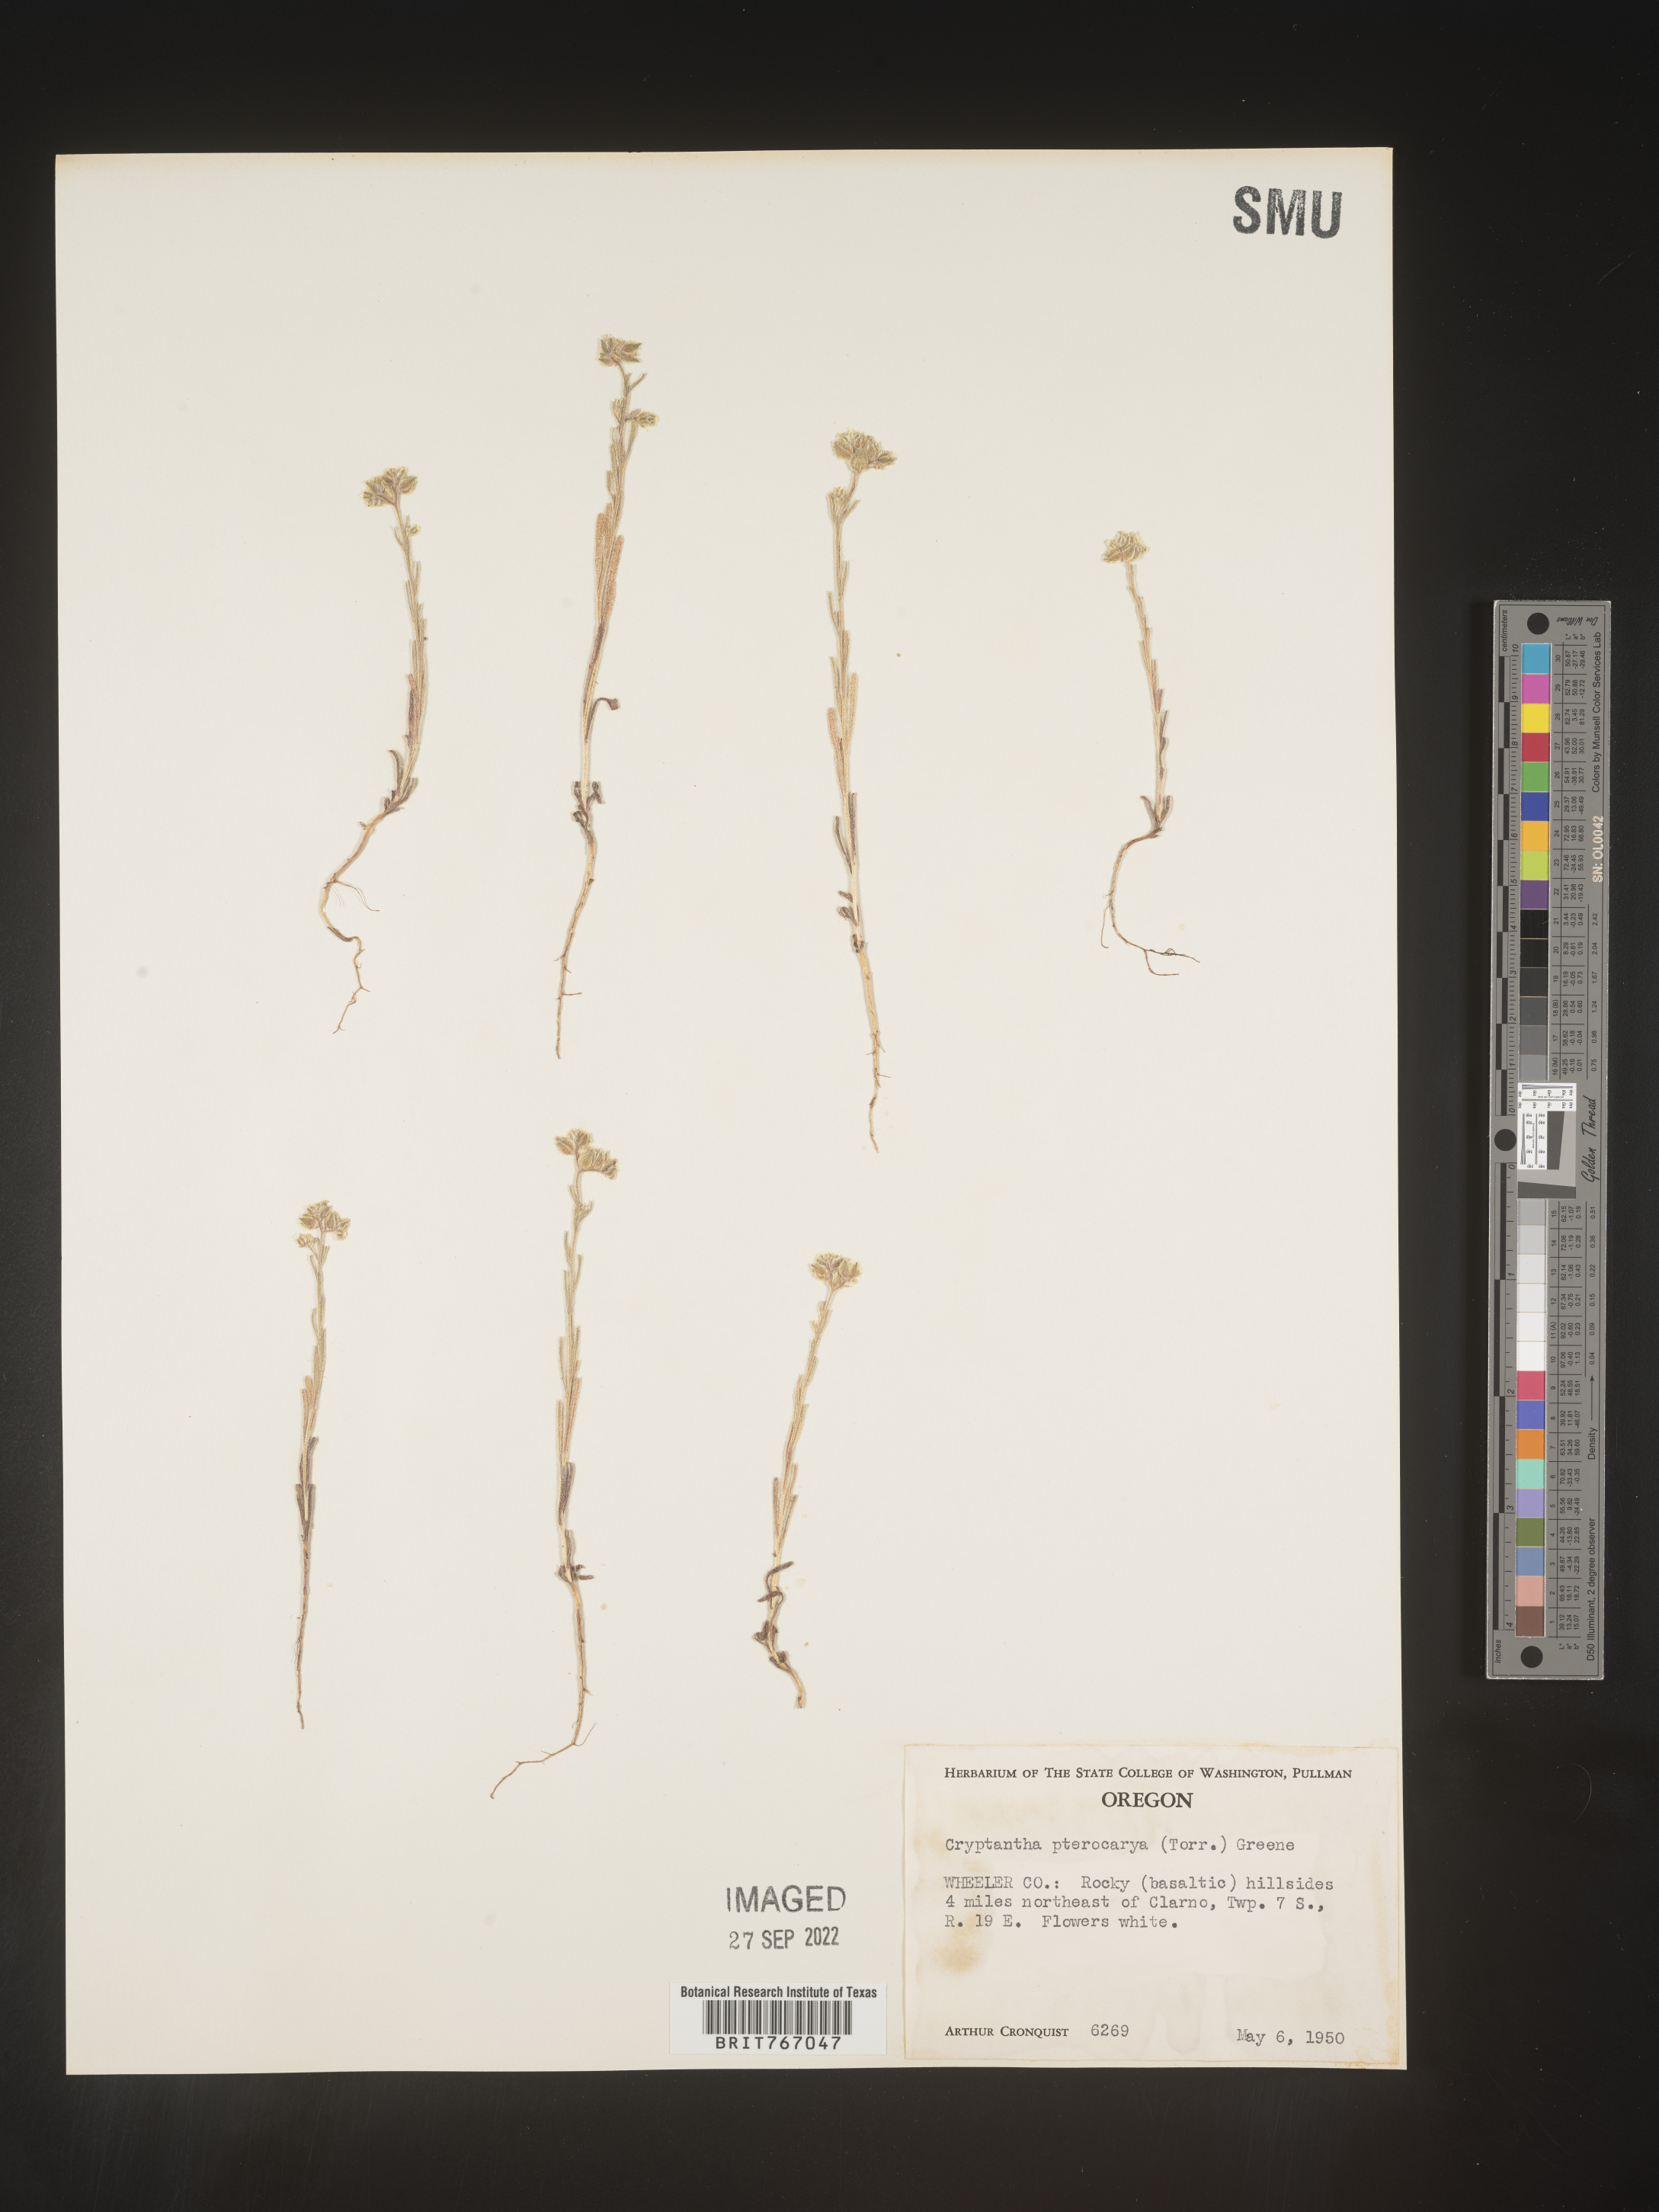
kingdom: Plantae
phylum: Tracheophyta
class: Magnoliopsida
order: Boraginales
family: Boraginaceae
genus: Cryptantha
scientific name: Cryptantha pterocarya
